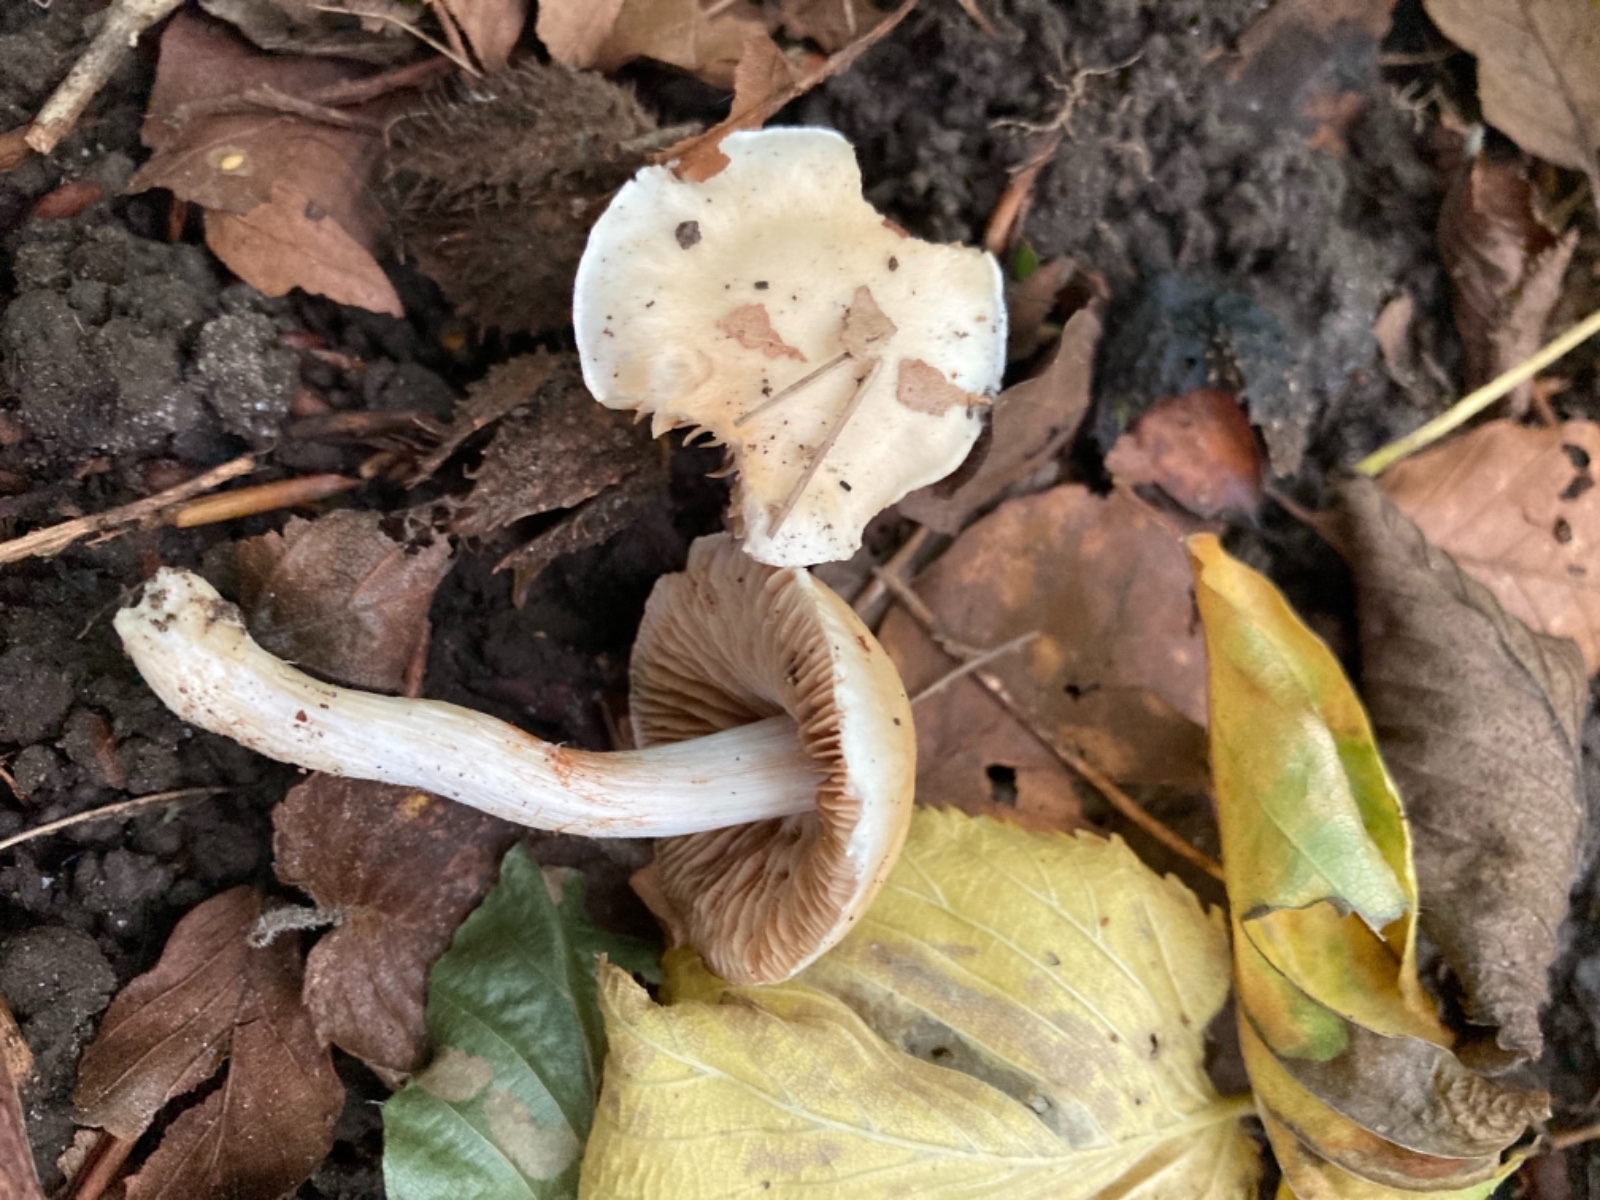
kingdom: Fungi
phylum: Basidiomycota
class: Agaricomycetes
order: Agaricales
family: Cortinariaceae
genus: Thaxterogaster
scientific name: Thaxterogaster barbatus
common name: elfenbens-slørhat
